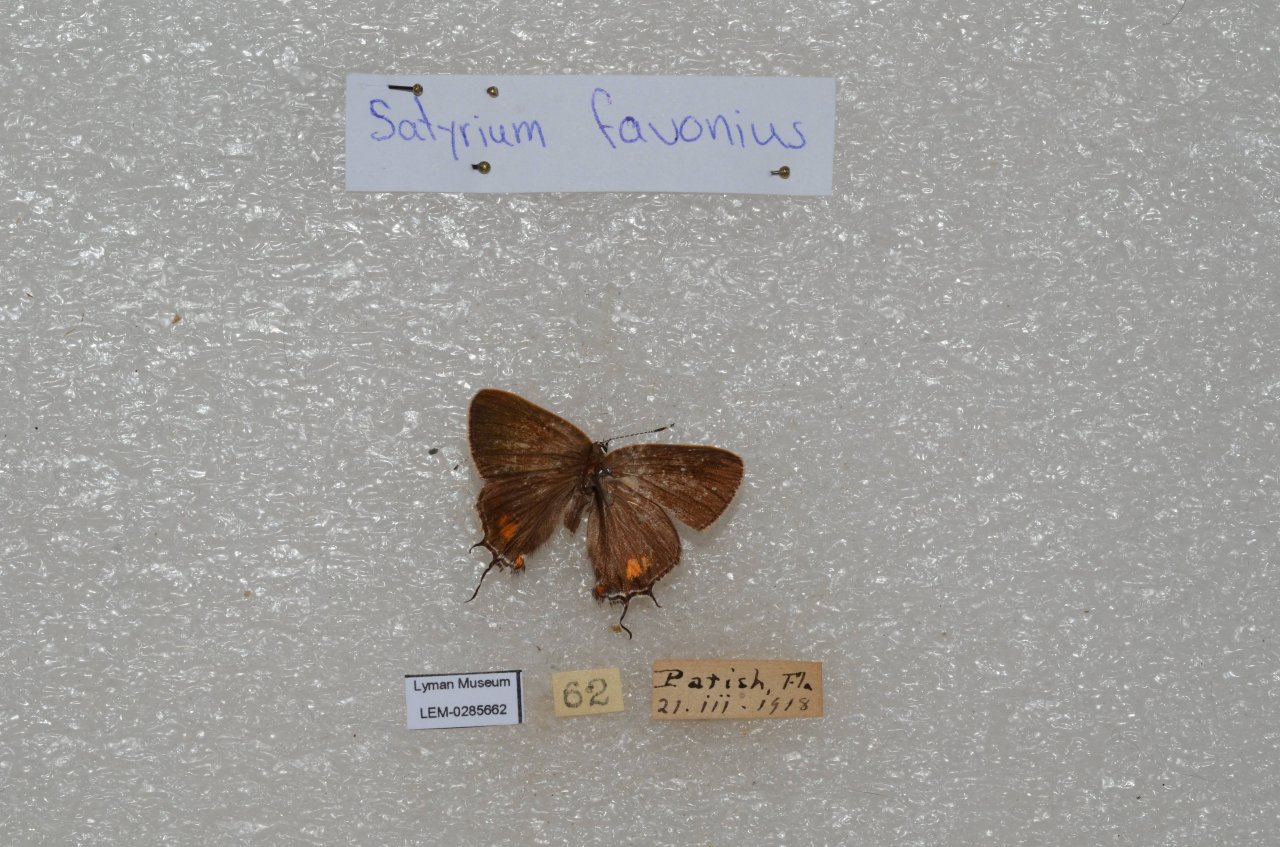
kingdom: Animalia
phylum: Arthropoda
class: Insecta
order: Lepidoptera
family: Lycaenidae
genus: Fixsenia
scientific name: Fixsenia favonius
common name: Oak Hairstreak
